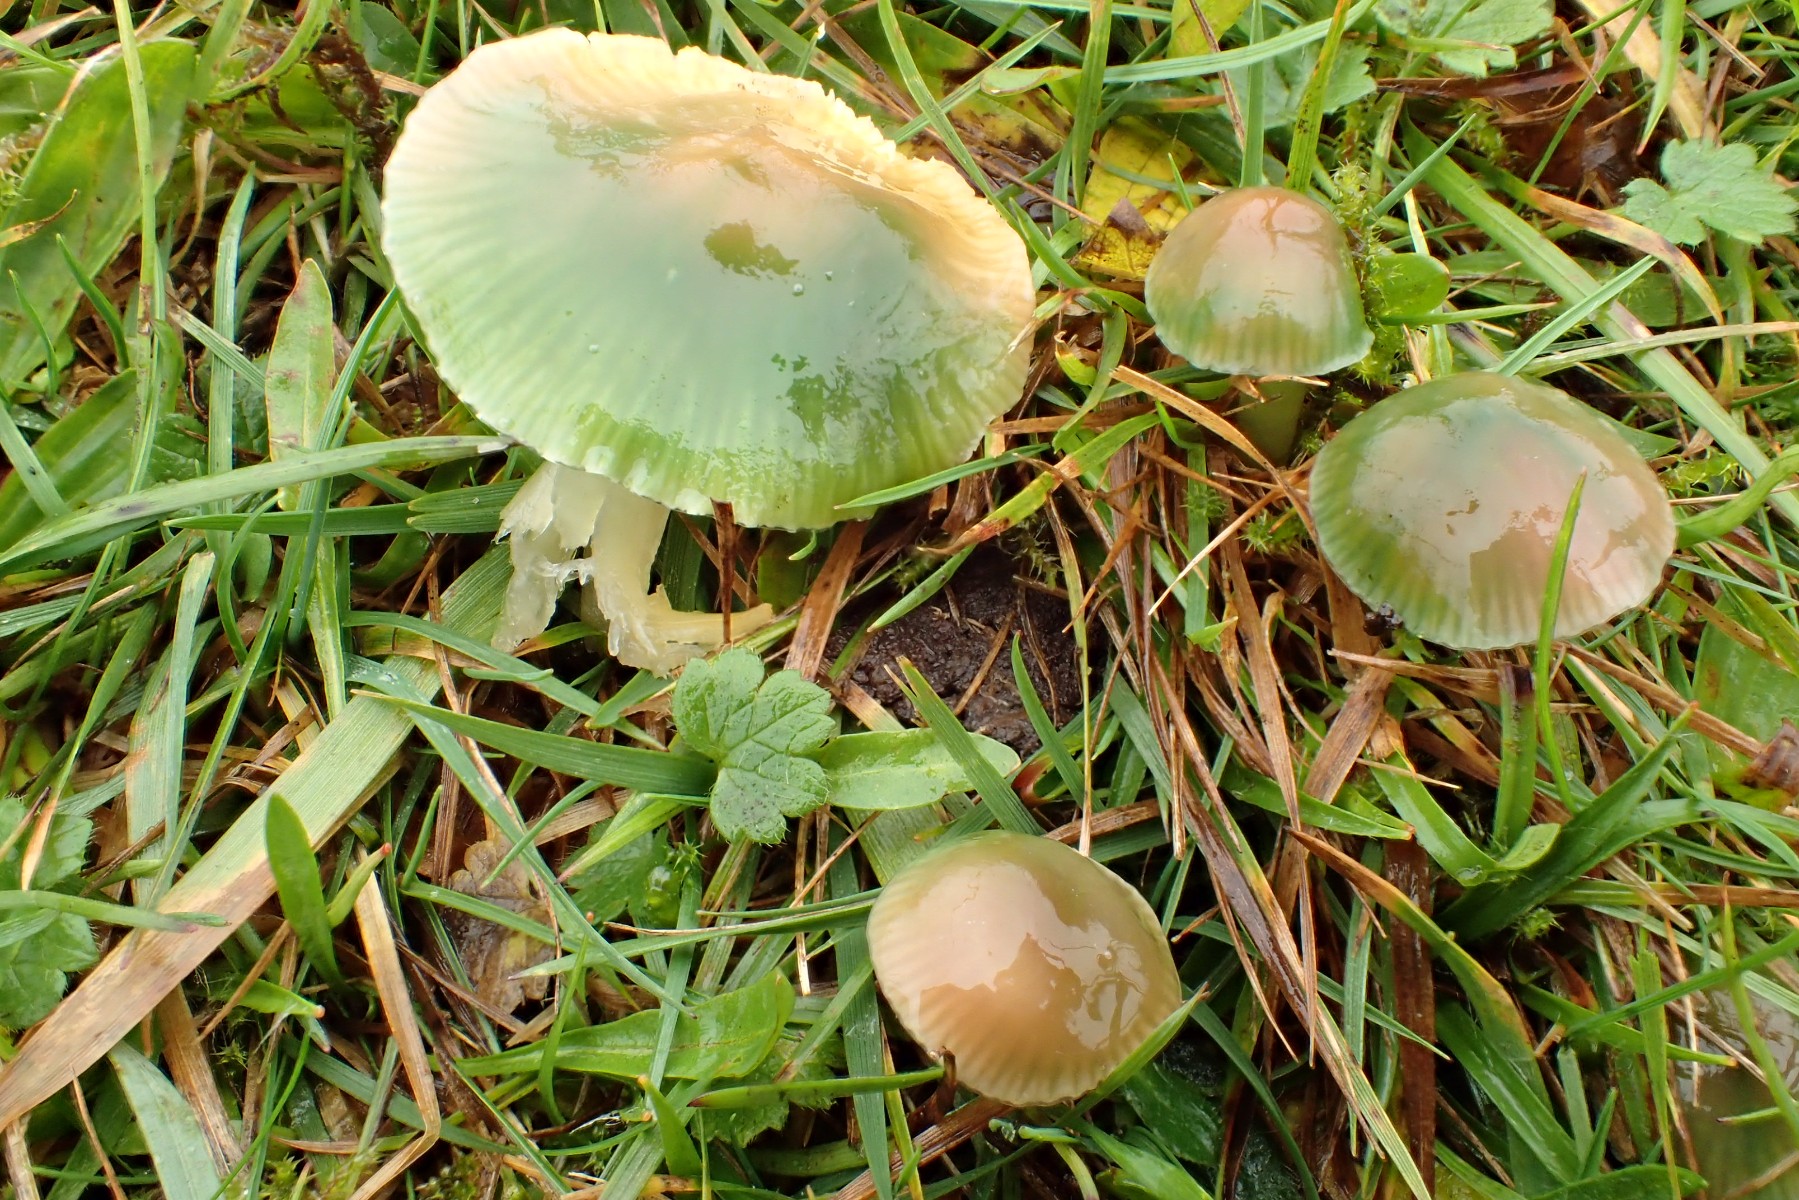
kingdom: Fungi
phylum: Basidiomycota
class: Agaricomycetes
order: Agaricales
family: Hygrophoraceae
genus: Gliophorus
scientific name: Gliophorus psittacinus
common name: papegøje-vokshat
